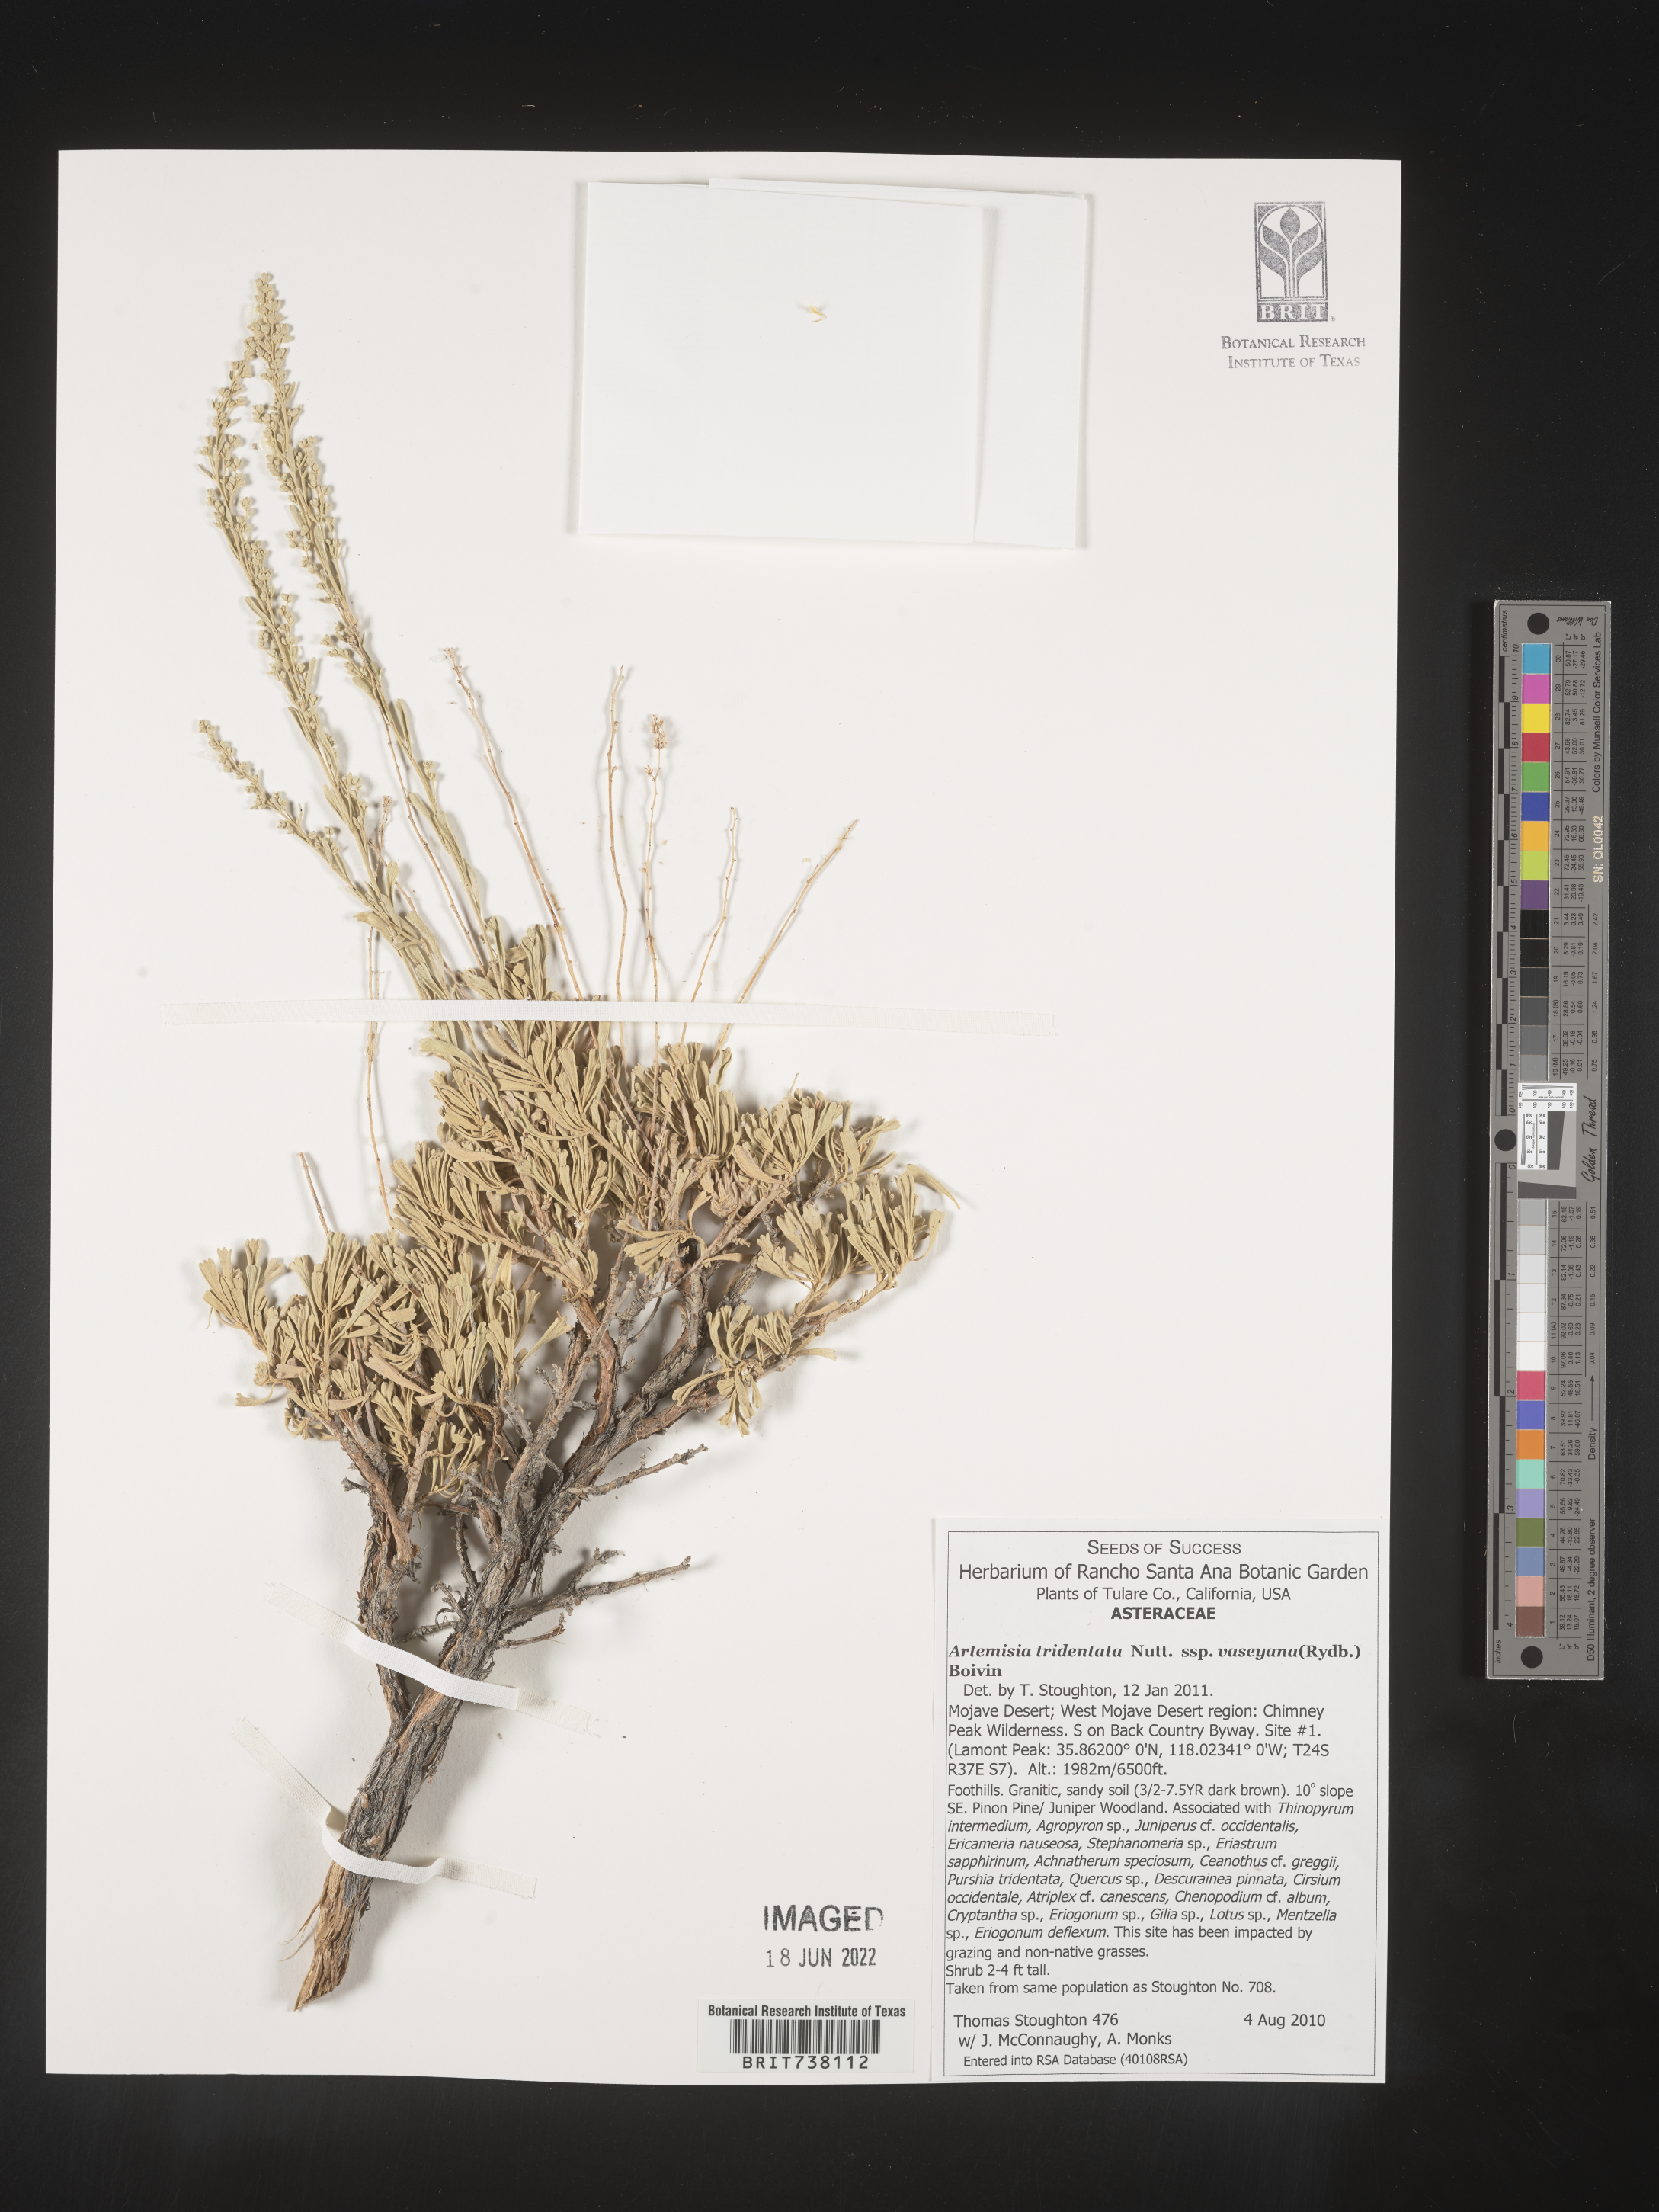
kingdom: Plantae
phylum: Tracheophyta
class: Magnoliopsida
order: Asterales
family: Asteraceae
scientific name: Asteraceae
